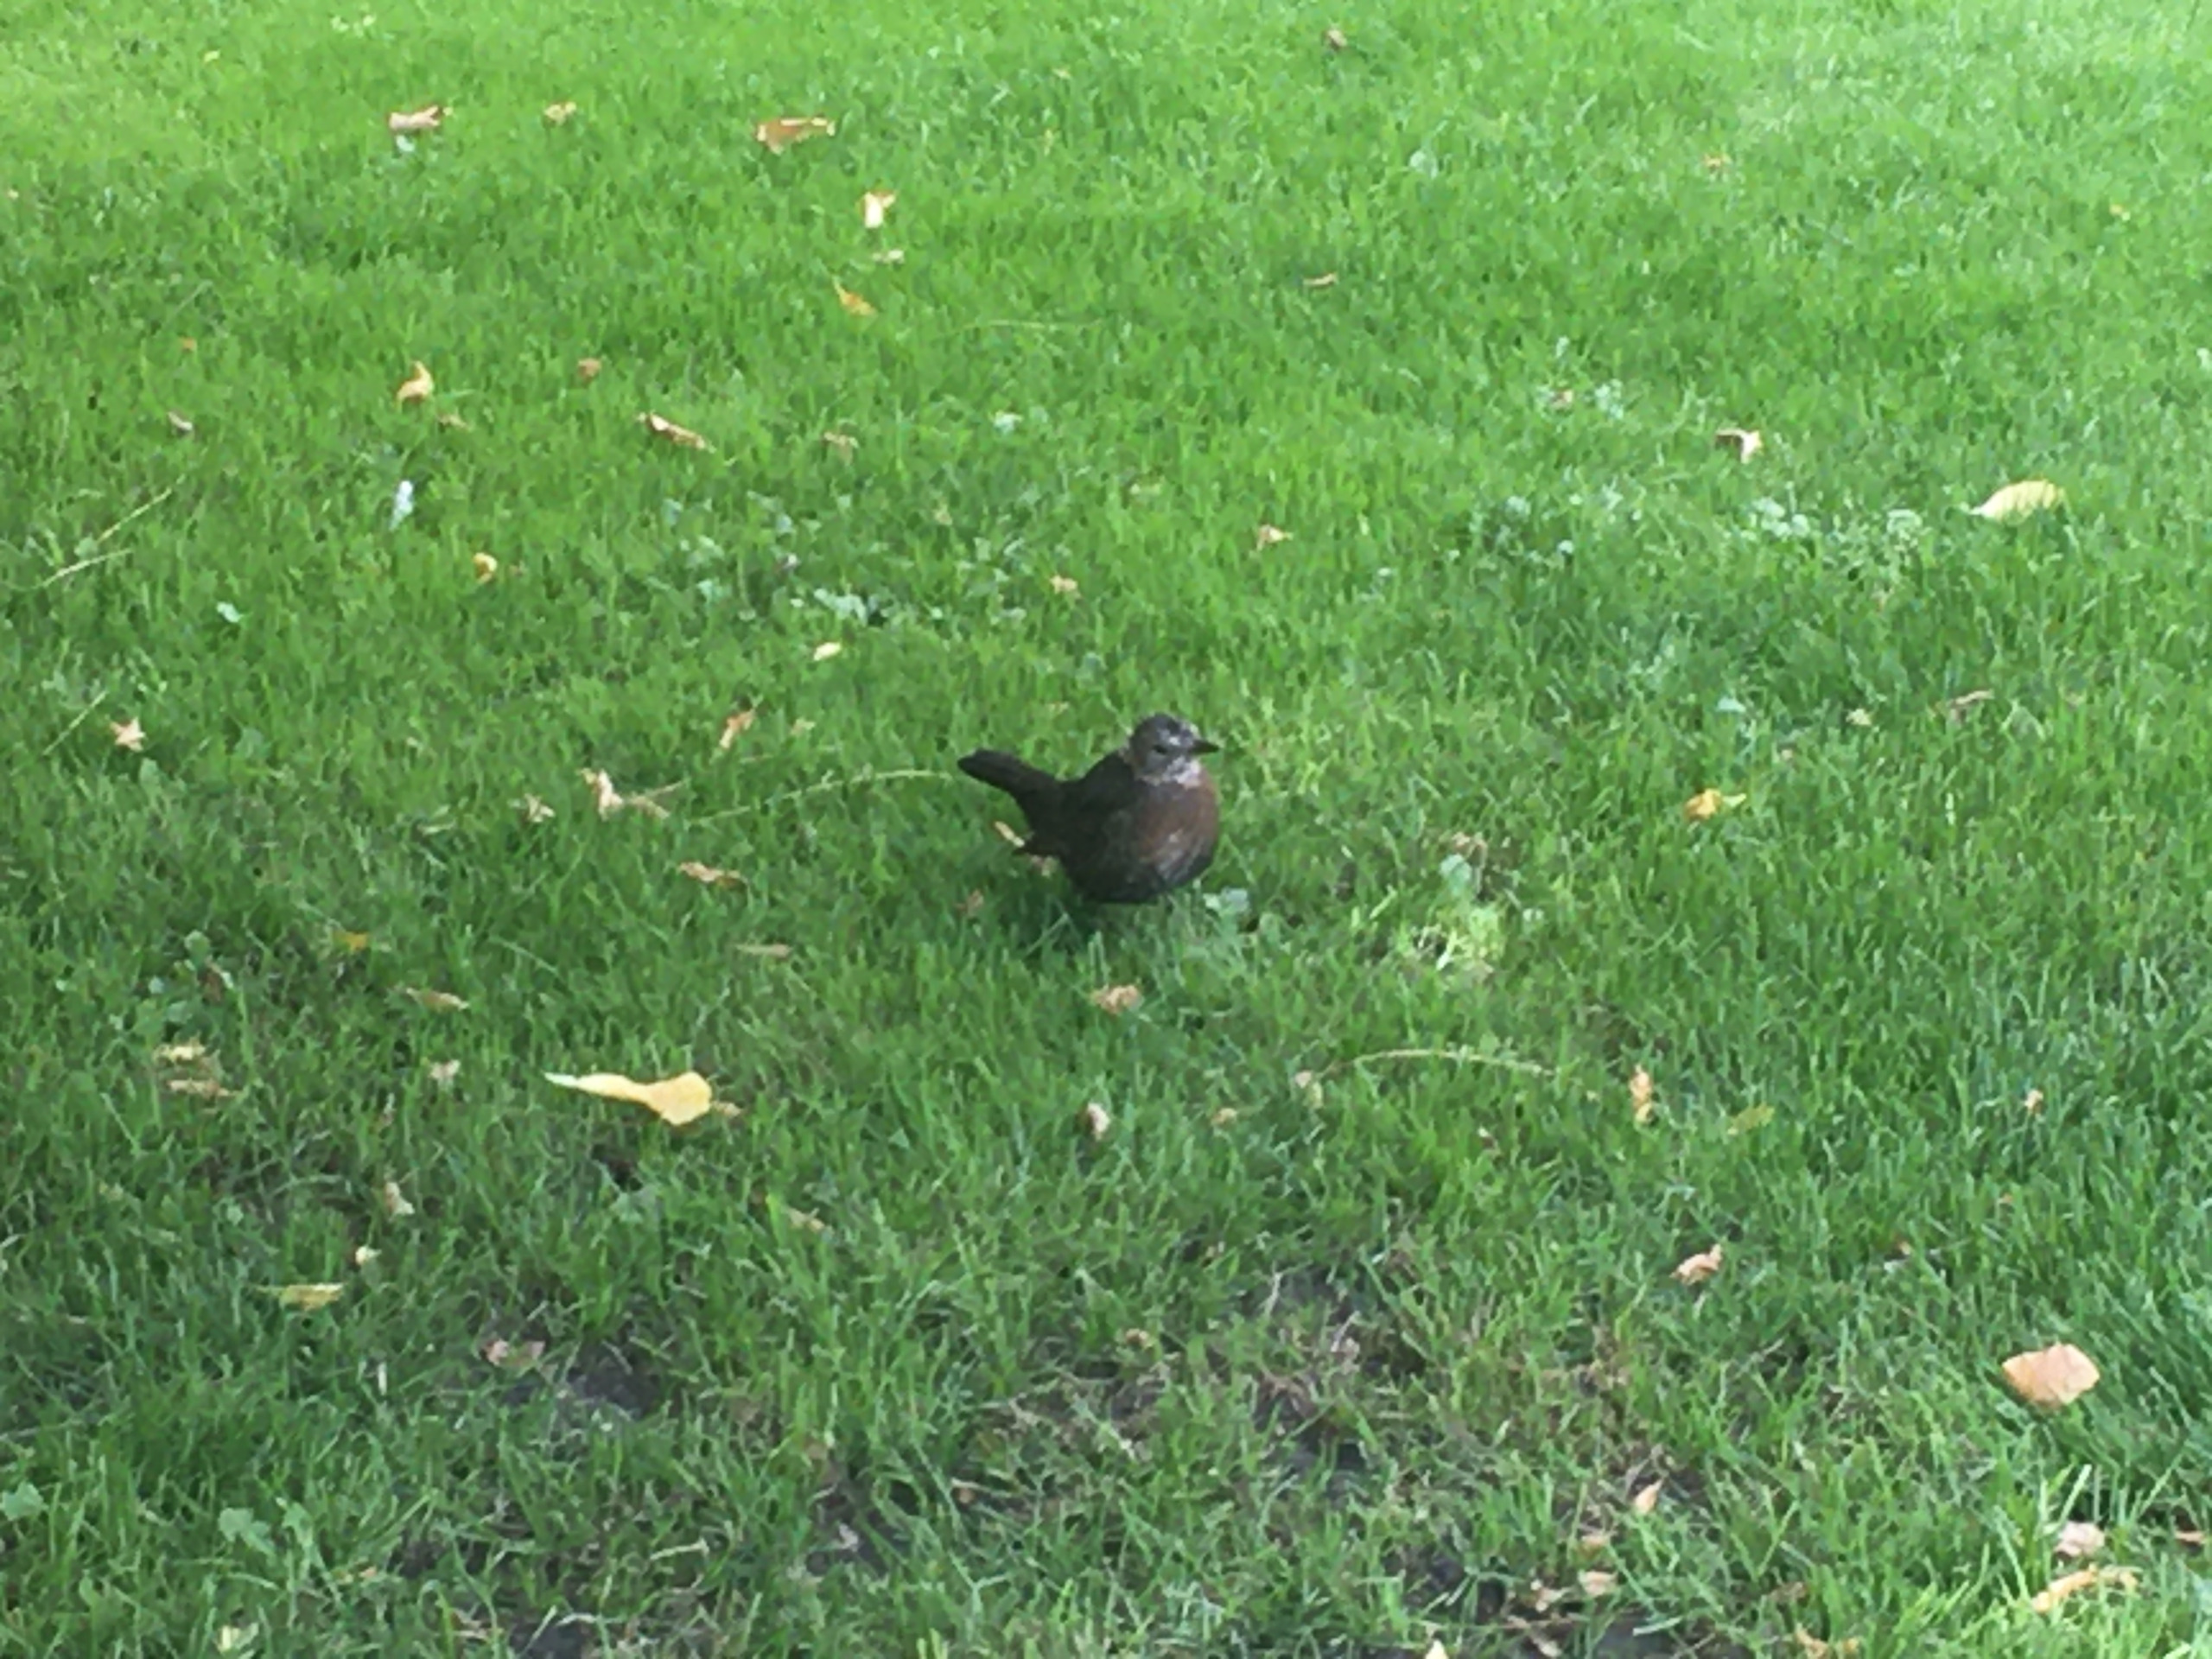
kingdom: Animalia
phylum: Chordata
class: Aves
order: Passeriformes
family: Turdidae
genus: Turdus
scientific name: Turdus merula
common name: Solsort
